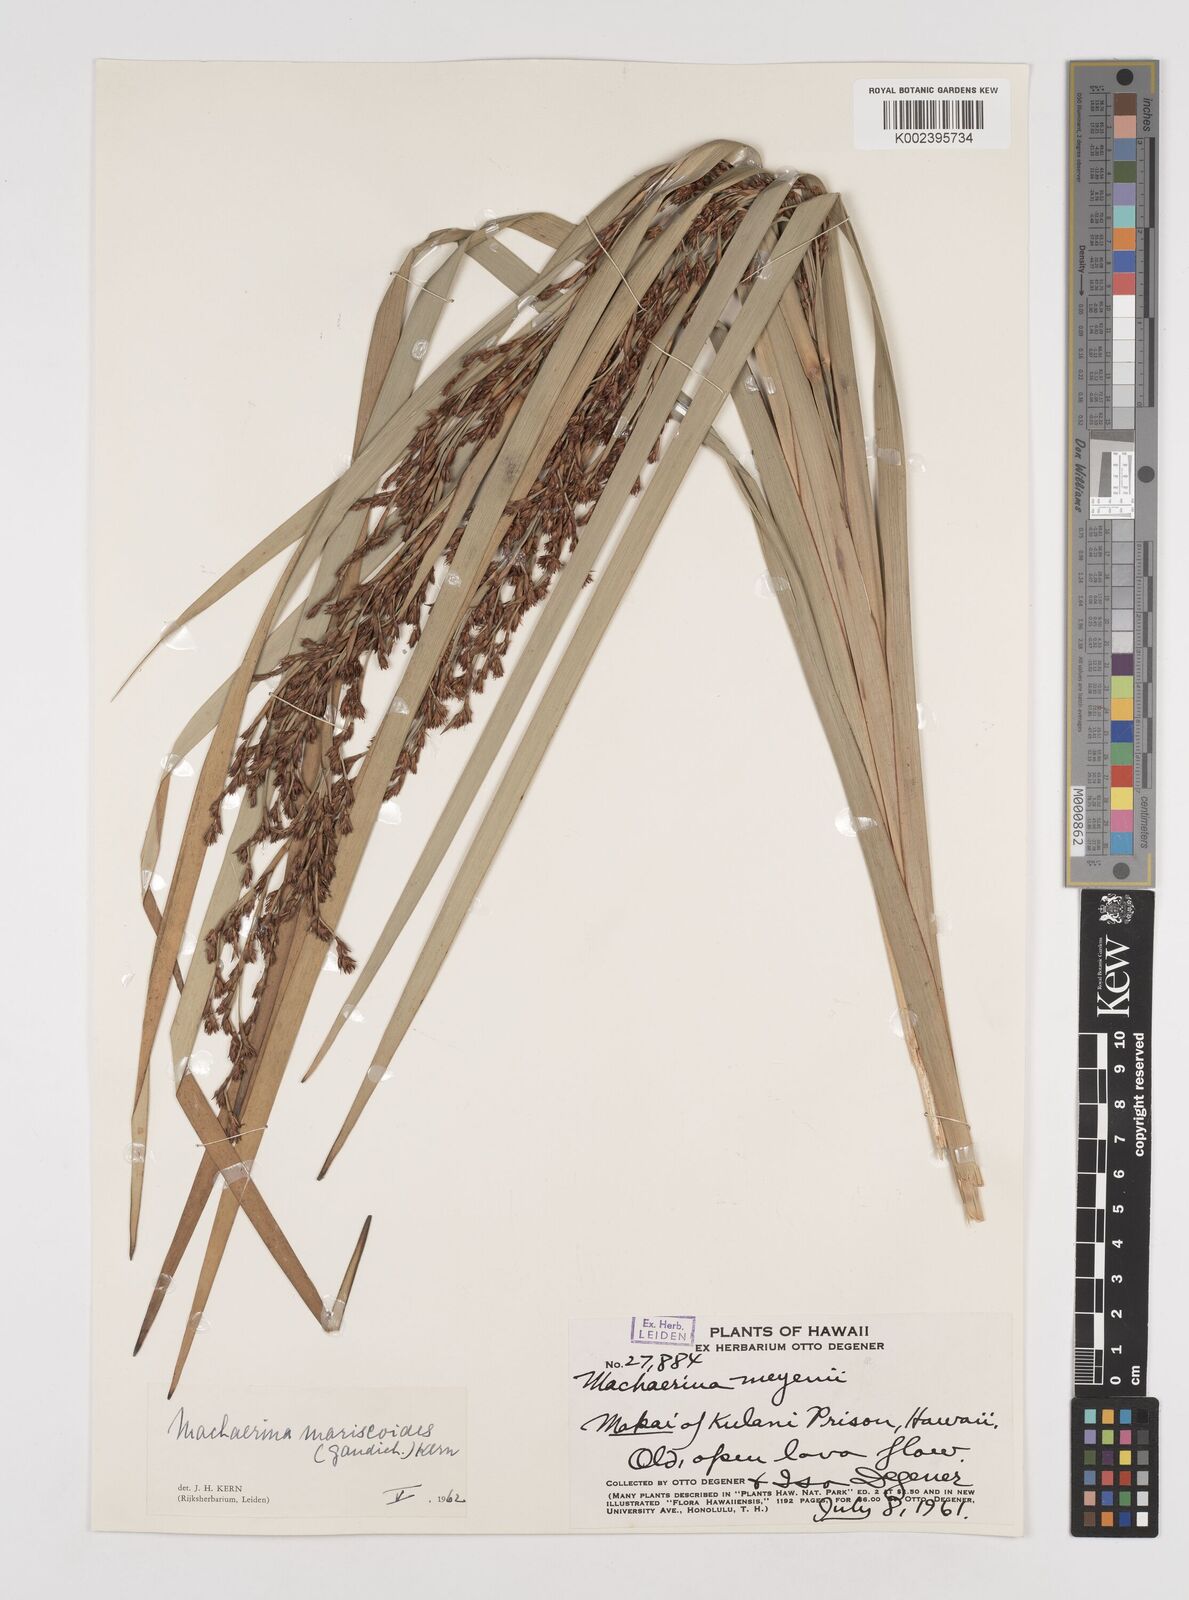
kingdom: Plantae
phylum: Tracheophyta
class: Liliopsida
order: Poales
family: Cyperaceae
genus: Machaerina
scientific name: Machaerina mariscoides
